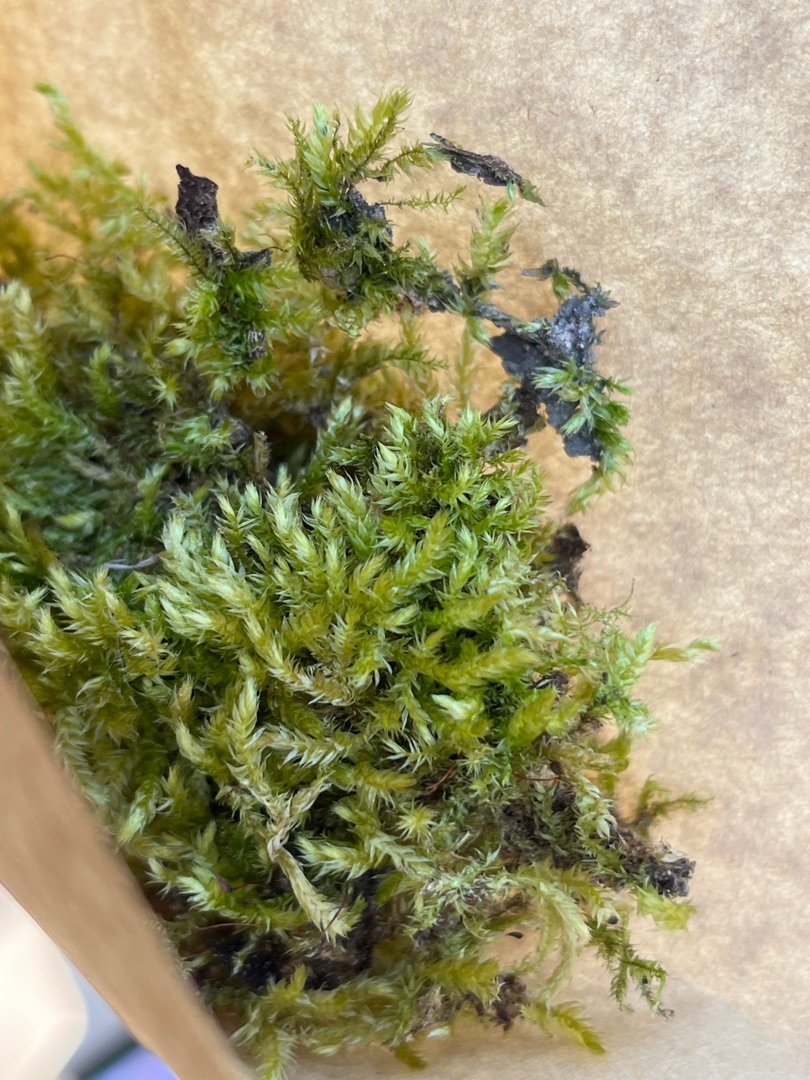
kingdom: Plantae
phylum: Bryophyta
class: Bryopsida
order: Hypnales
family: Brachytheciaceae
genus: Brachythecium
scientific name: Brachythecium rutabulum
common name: Almindelig kortkapsel
